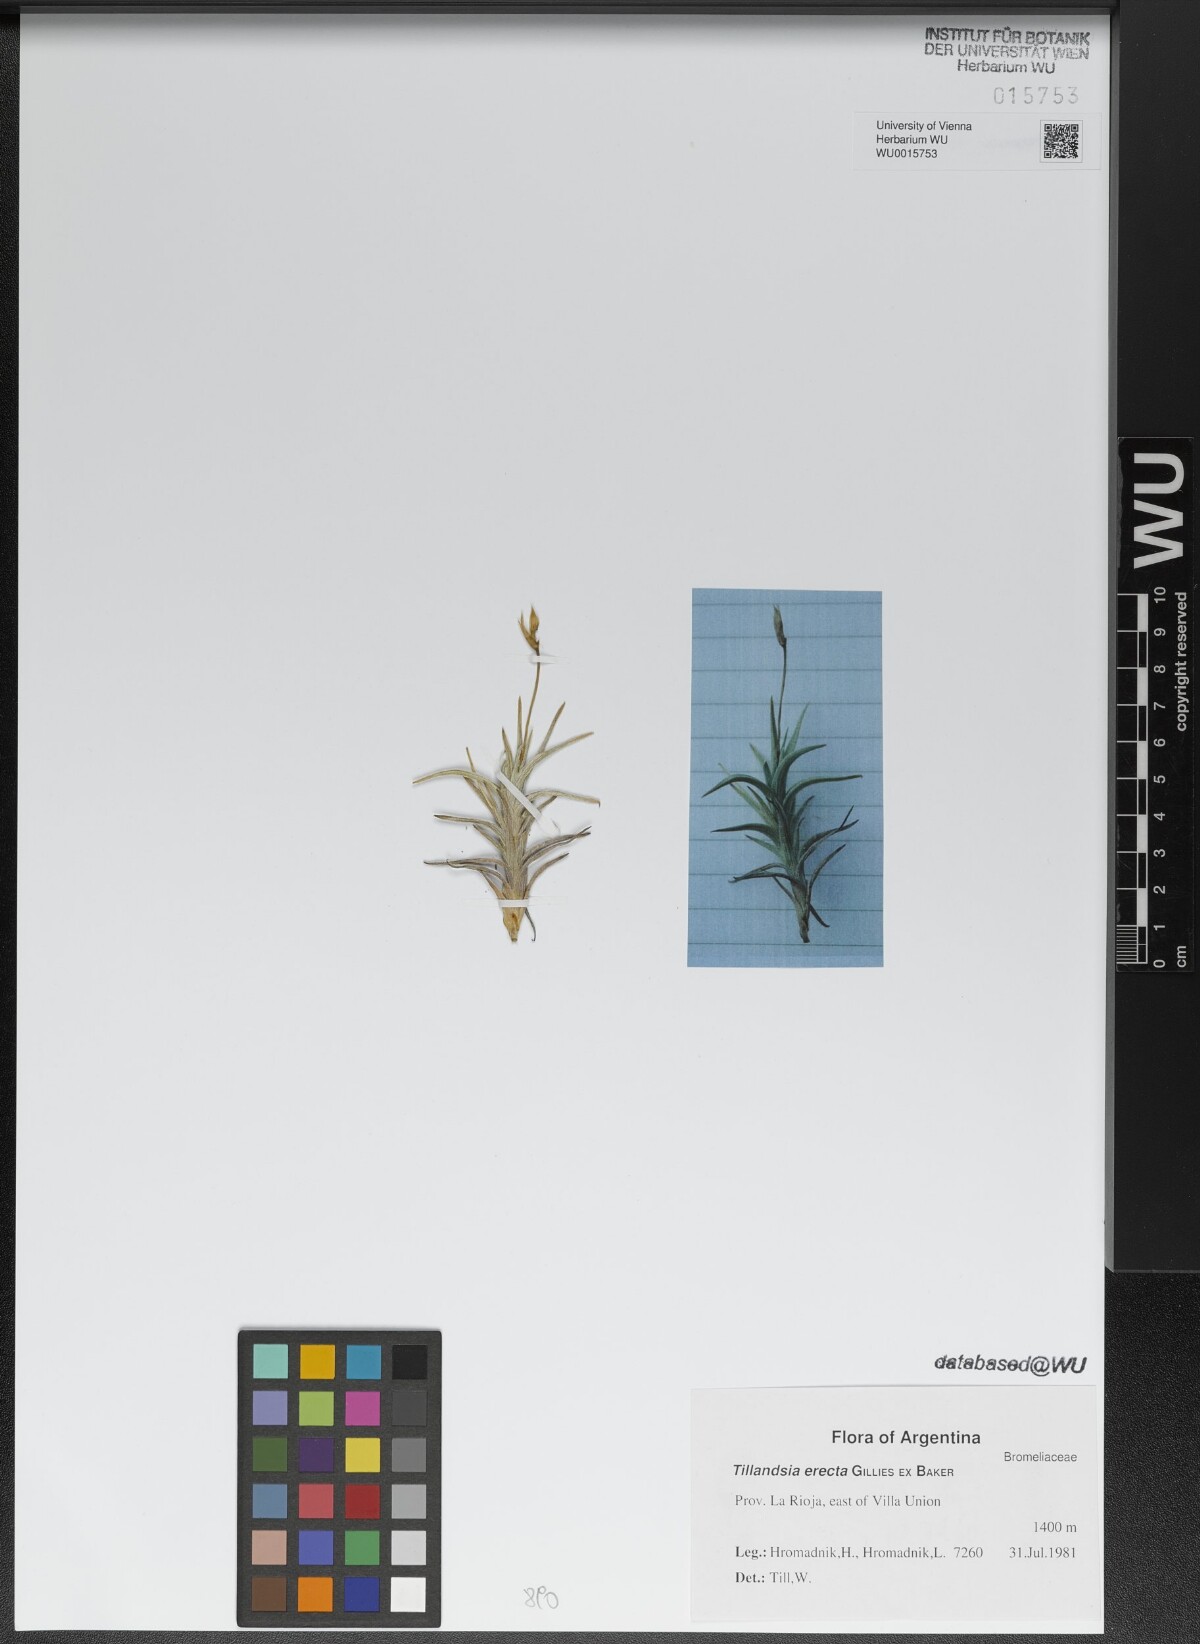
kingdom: Plantae
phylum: Tracheophyta
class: Liliopsida
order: Poales
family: Bromeliaceae
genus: Tillandsia
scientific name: Tillandsia erecta
